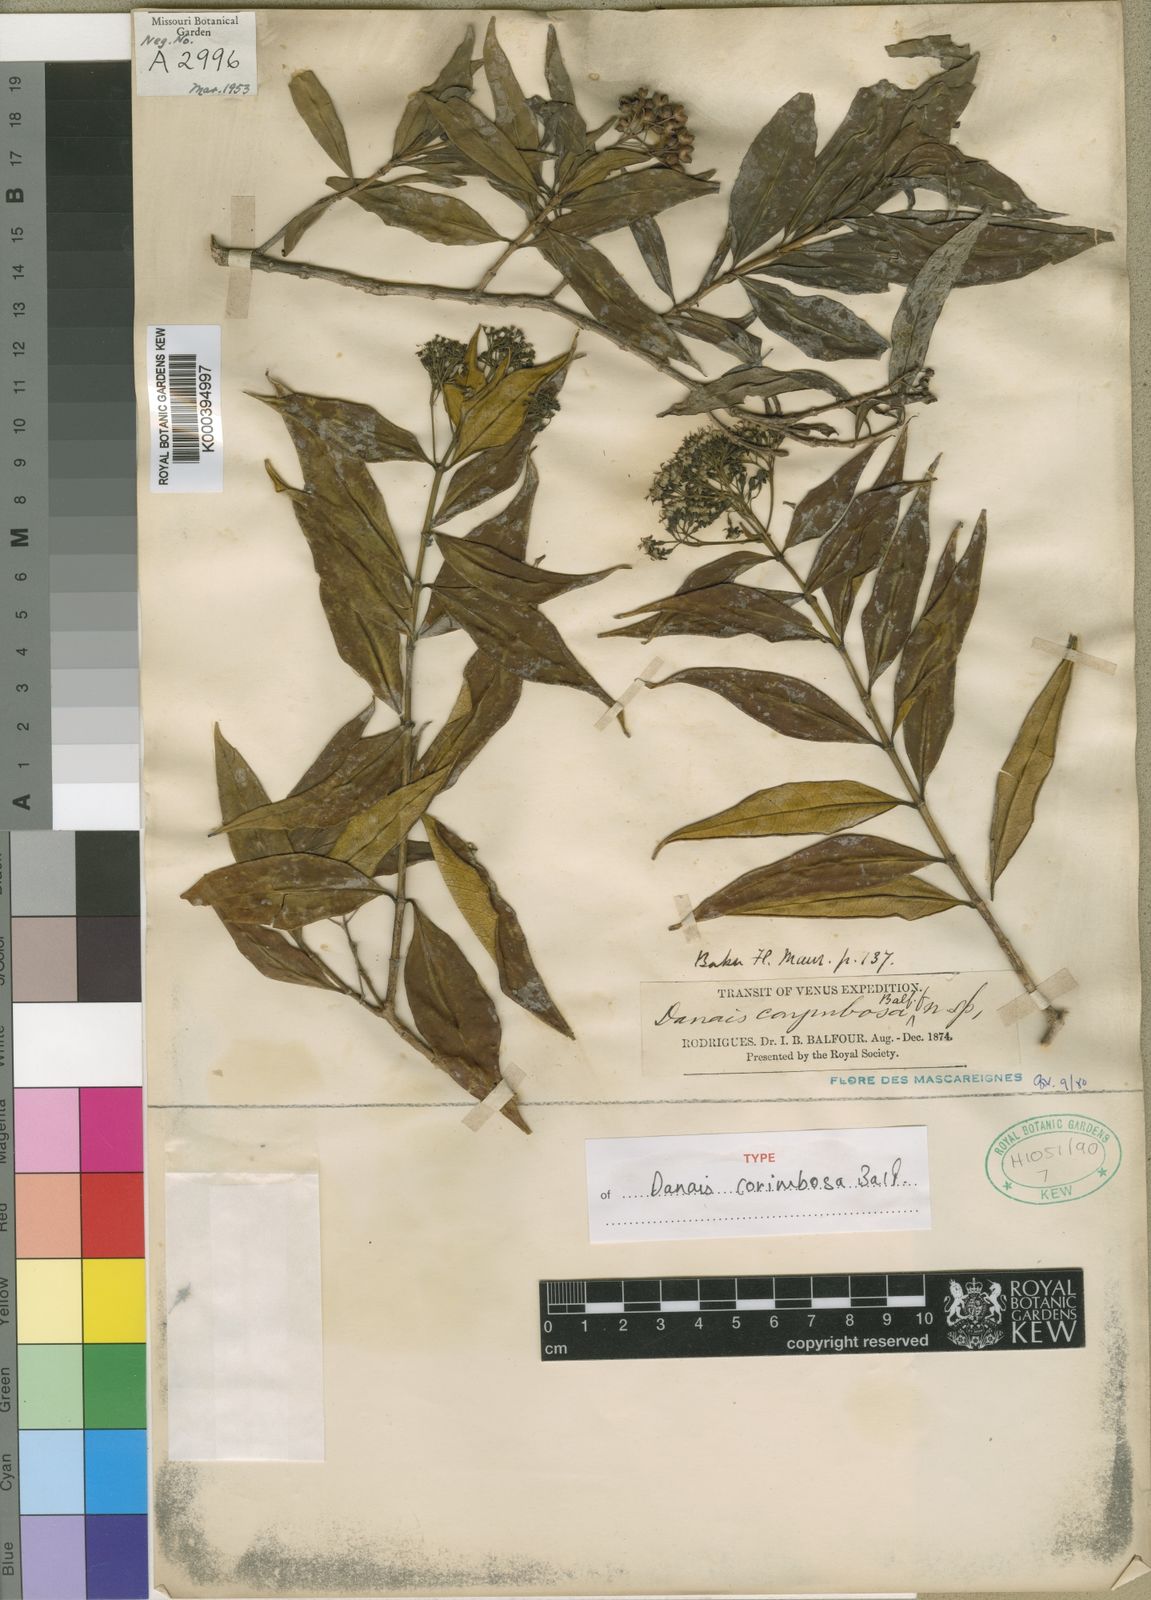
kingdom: Plantae
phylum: Tracheophyta
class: Magnoliopsida
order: Gentianales
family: Rubiaceae
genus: Danais
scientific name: Danais corymbosa
